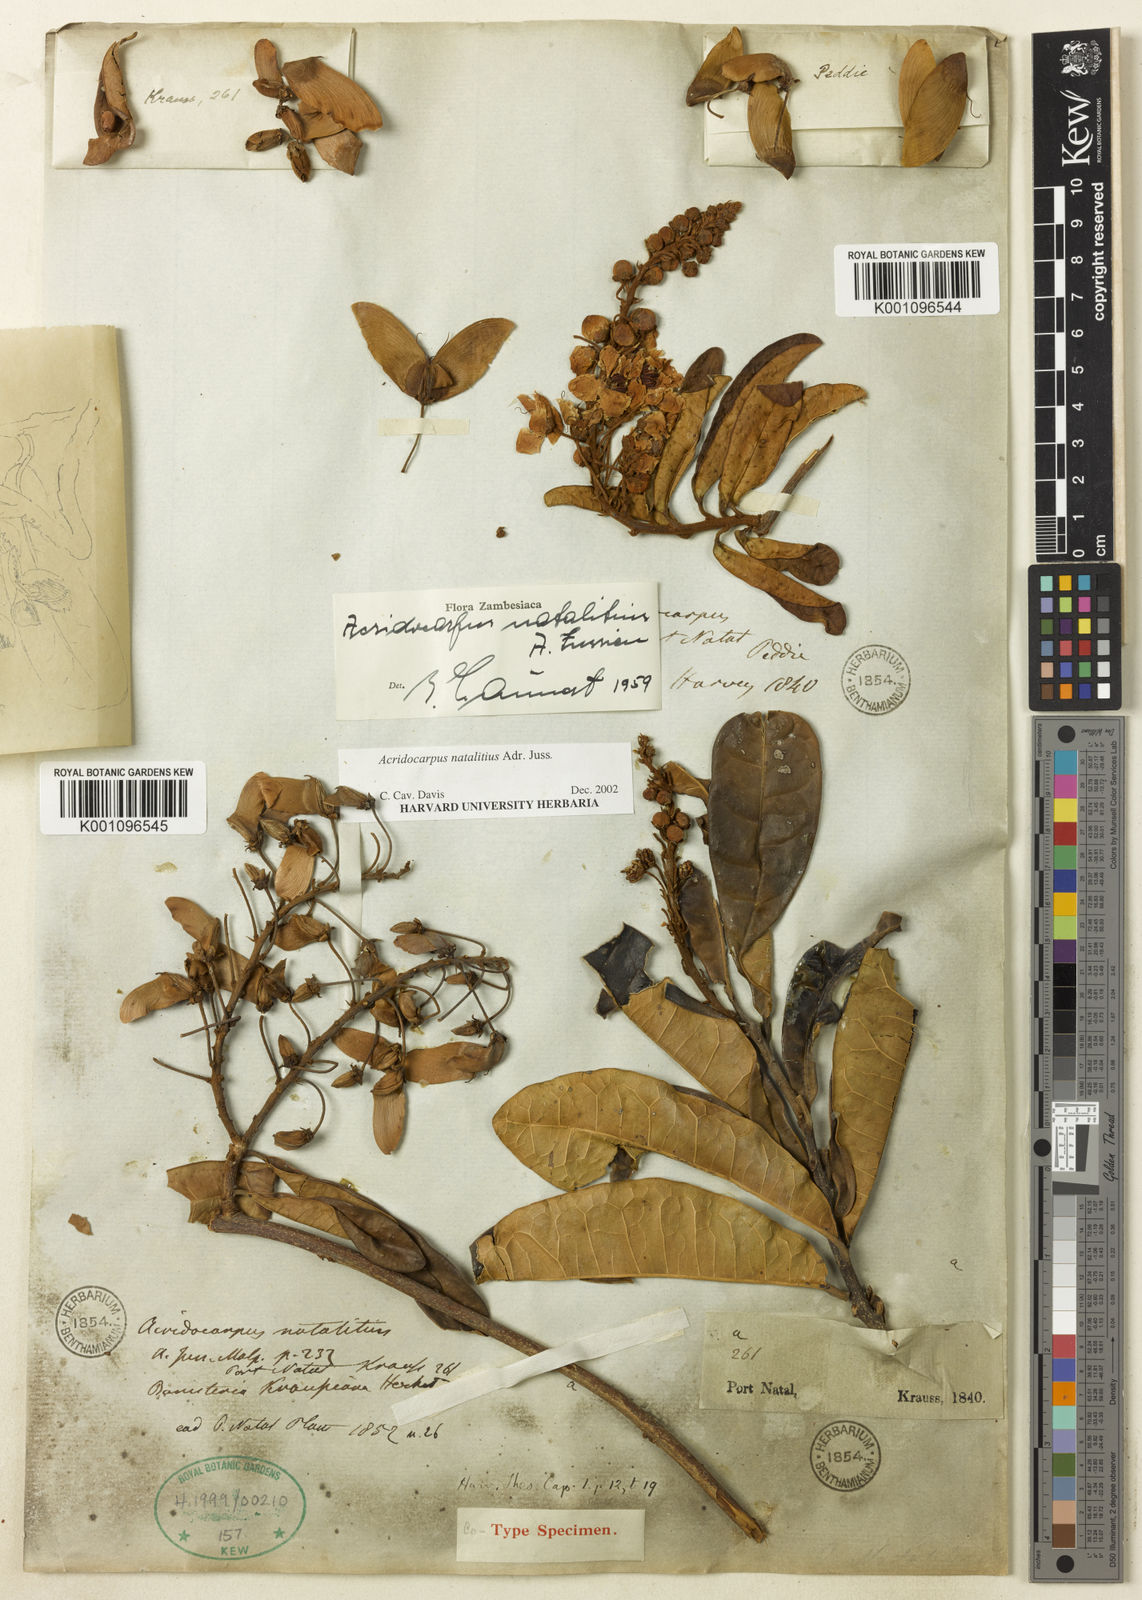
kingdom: Plantae
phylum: Tracheophyta
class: Magnoliopsida
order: Malpighiales
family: Malpighiaceae
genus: Acridocarpus
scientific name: Acridocarpus natalitius
